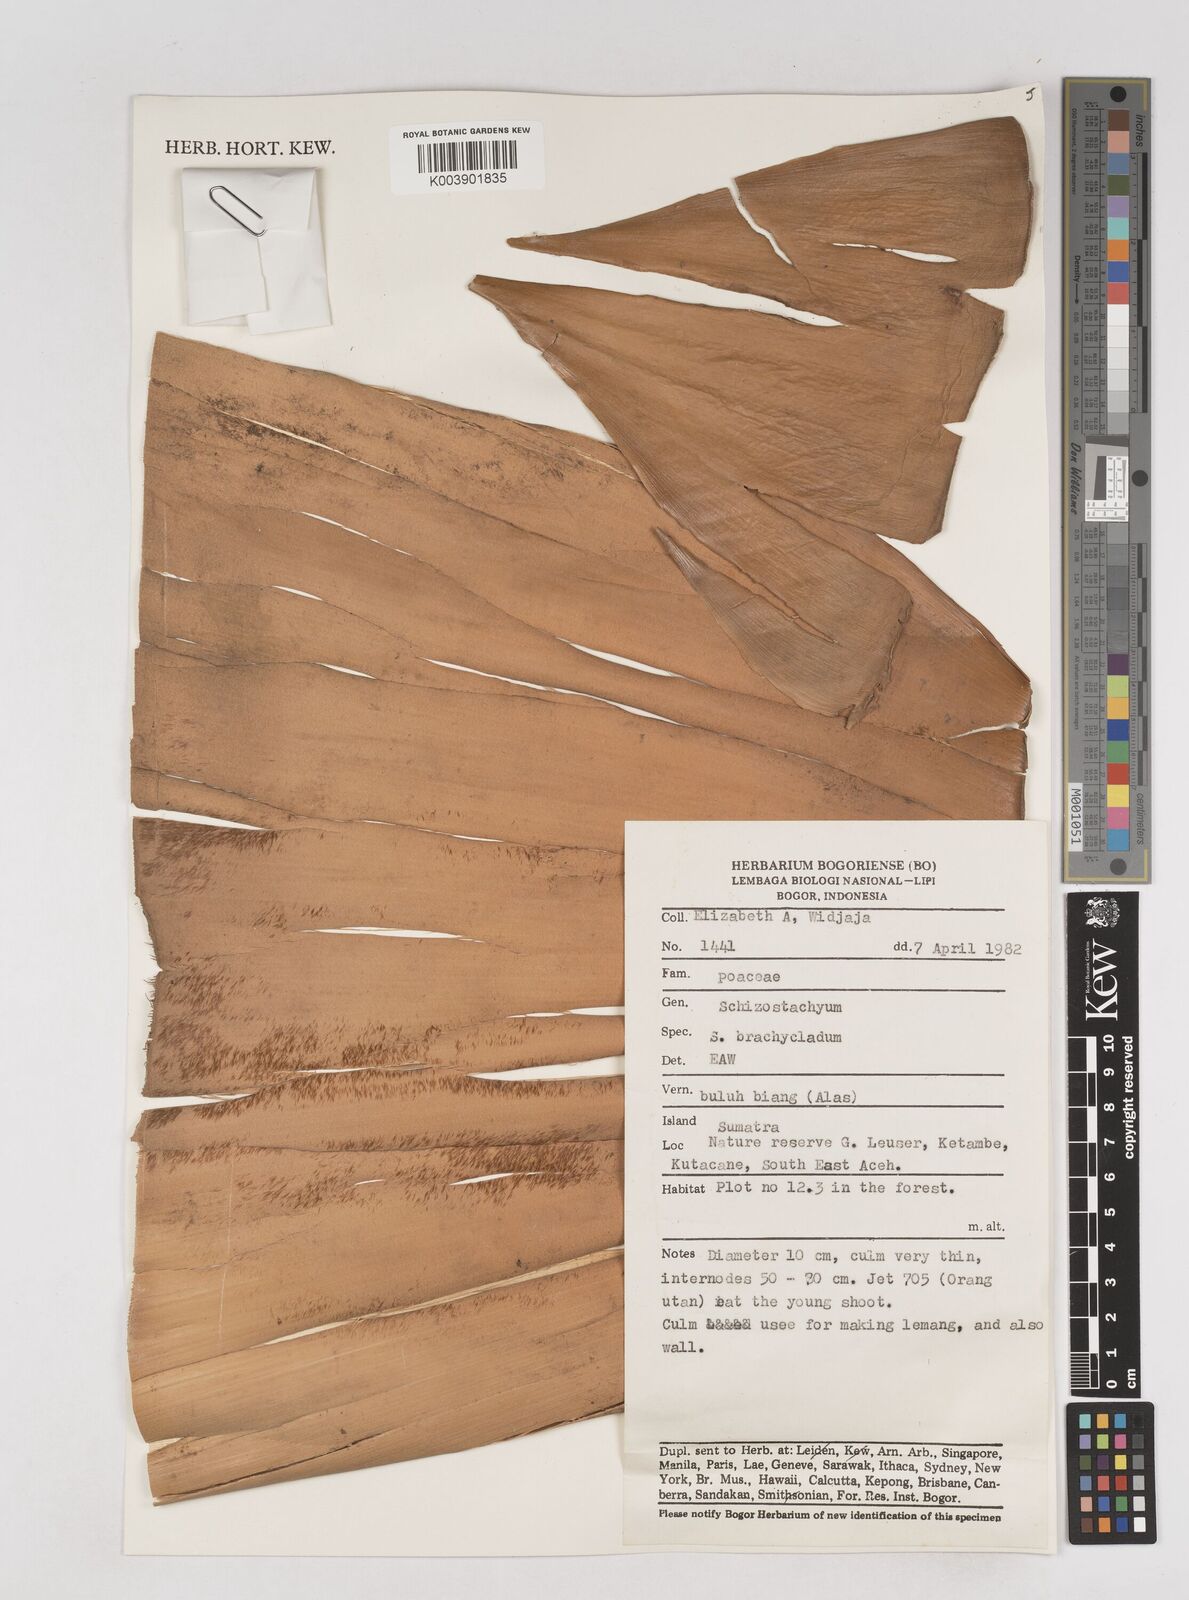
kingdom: Plantae
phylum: Tracheophyta
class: Liliopsida
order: Poales
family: Poaceae
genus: Schizostachyum
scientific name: Schizostachyum brachycladum
